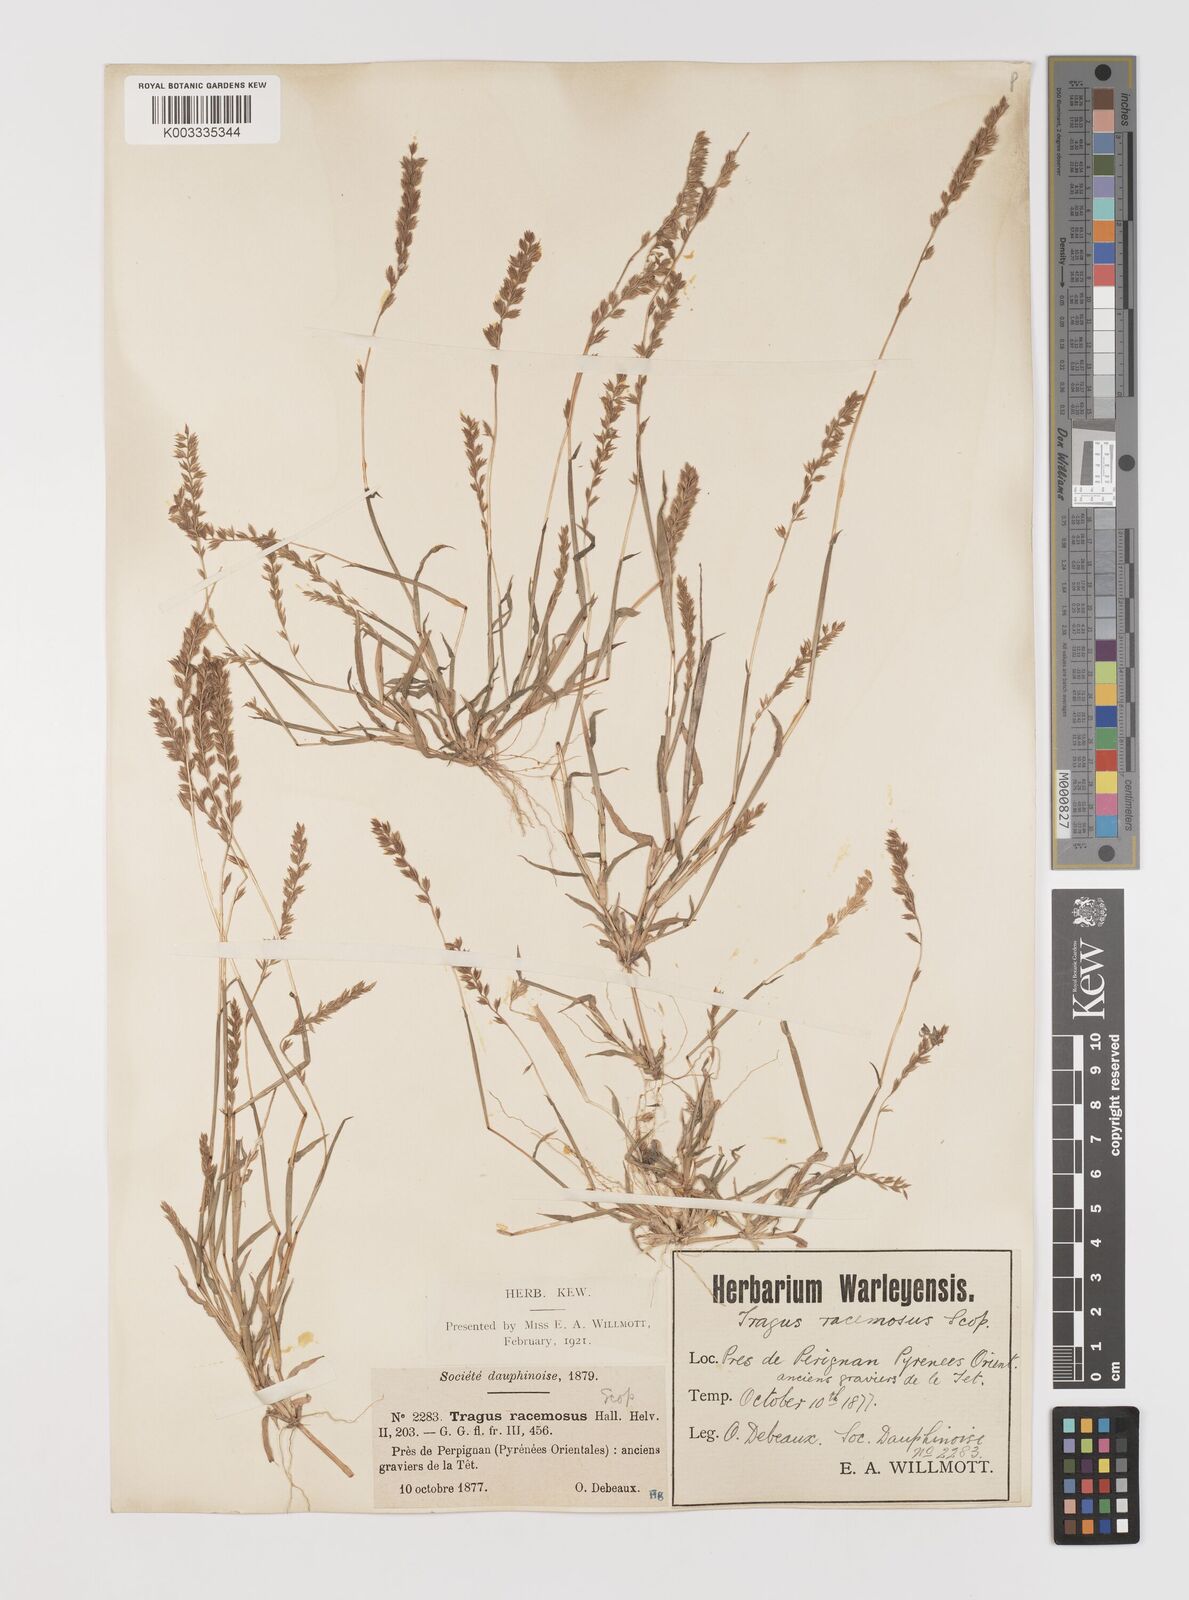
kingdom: Plantae
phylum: Tracheophyta
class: Liliopsida
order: Poales
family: Poaceae
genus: Tragus
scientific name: Tragus racemosus
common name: European bur-grass
